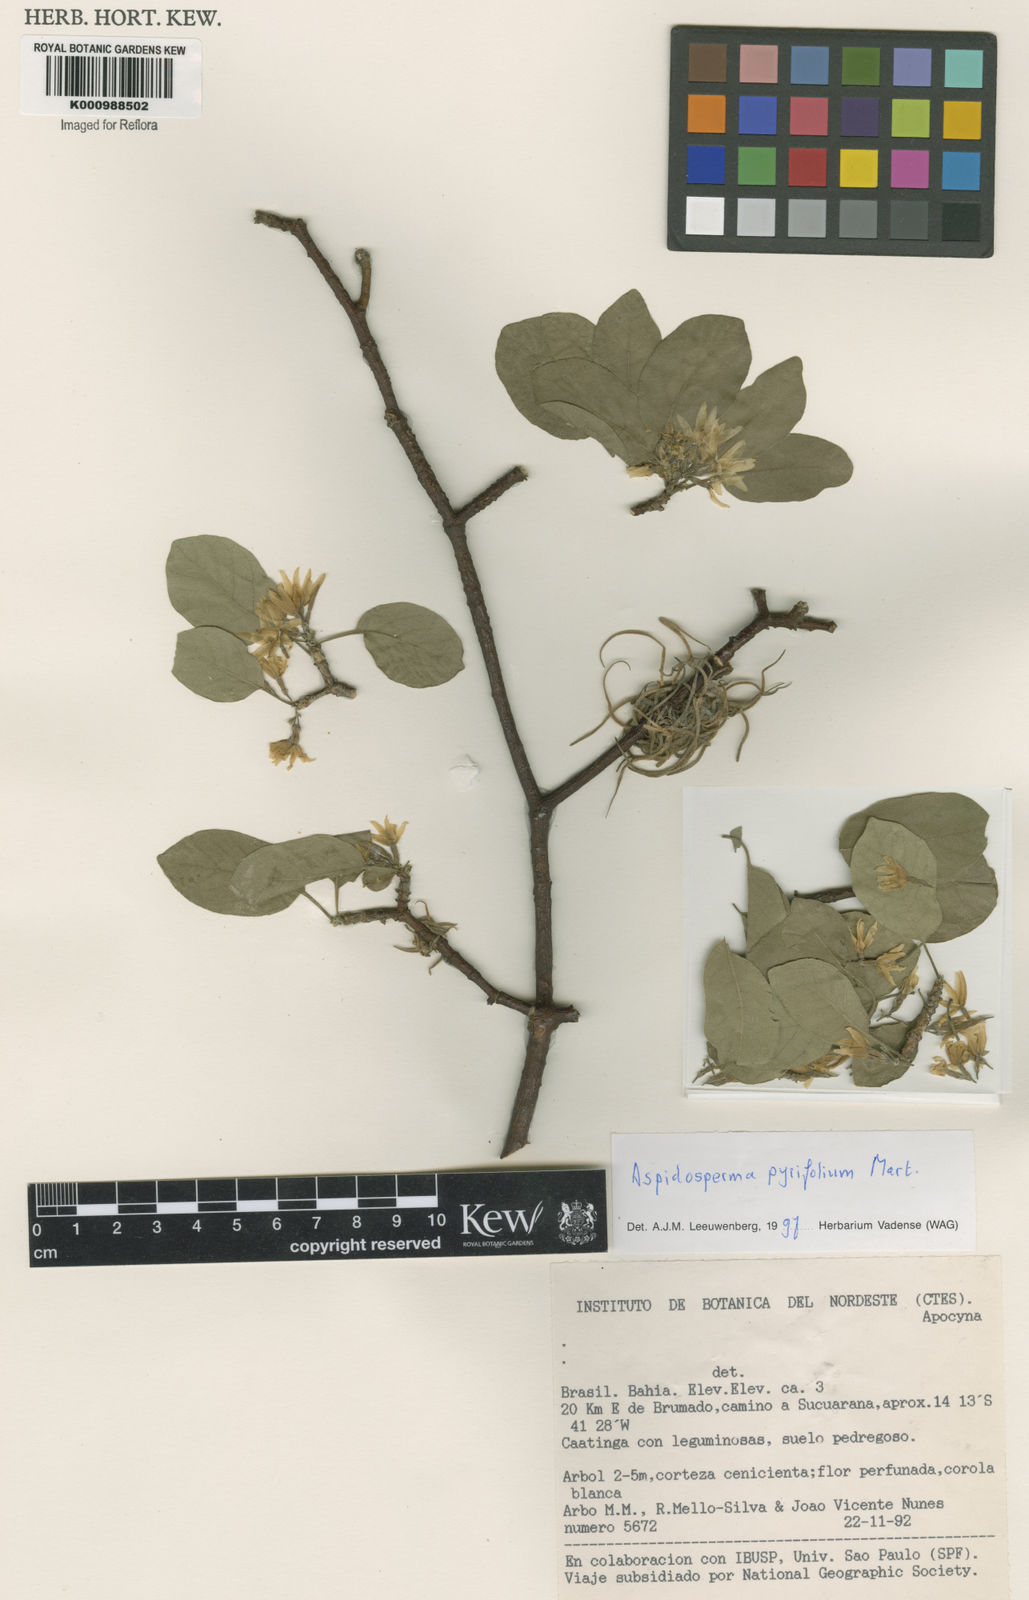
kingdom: Plantae
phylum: Tracheophyta
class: Magnoliopsida
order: Gentianales
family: Apocynaceae
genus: Aspidosperma
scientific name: Aspidosperma pyrifolium
